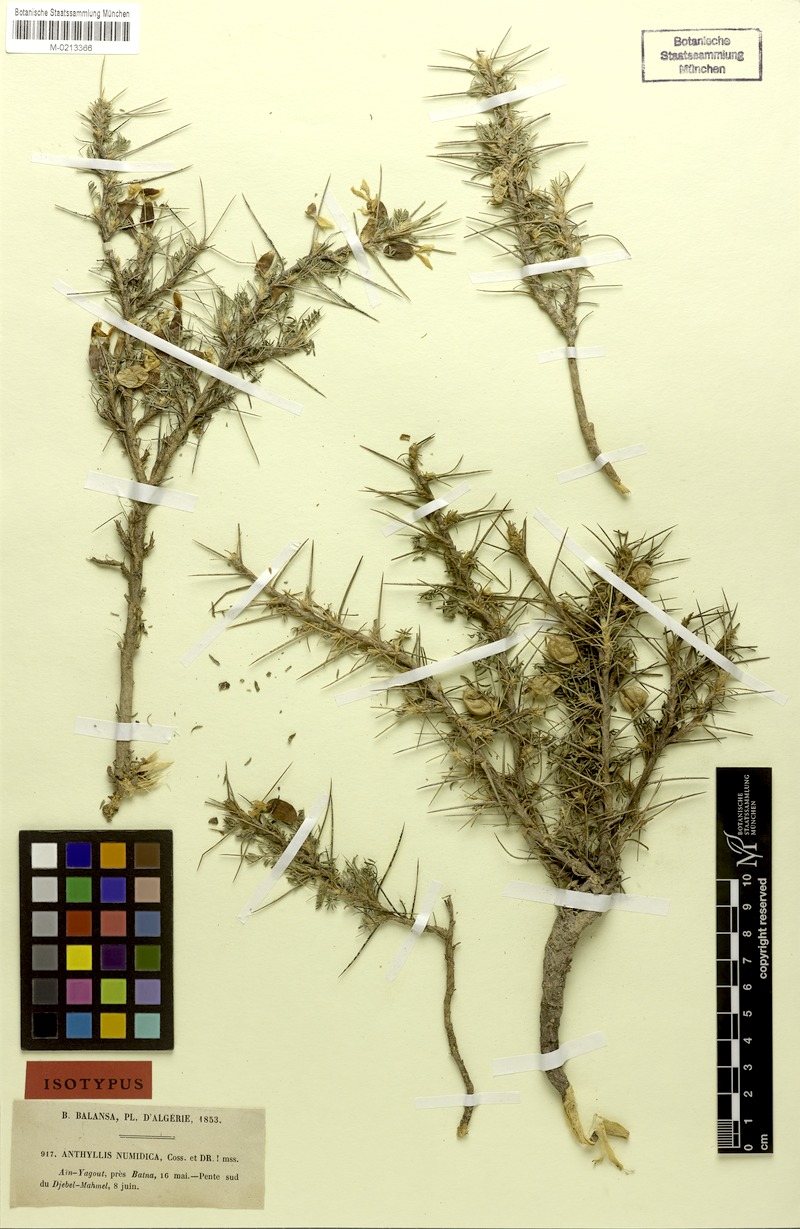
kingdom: Plantae
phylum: Tracheophyta
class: Magnoliopsida
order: Fabales
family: Fabaceae
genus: Anthyllis
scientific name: Anthyllis numidica
